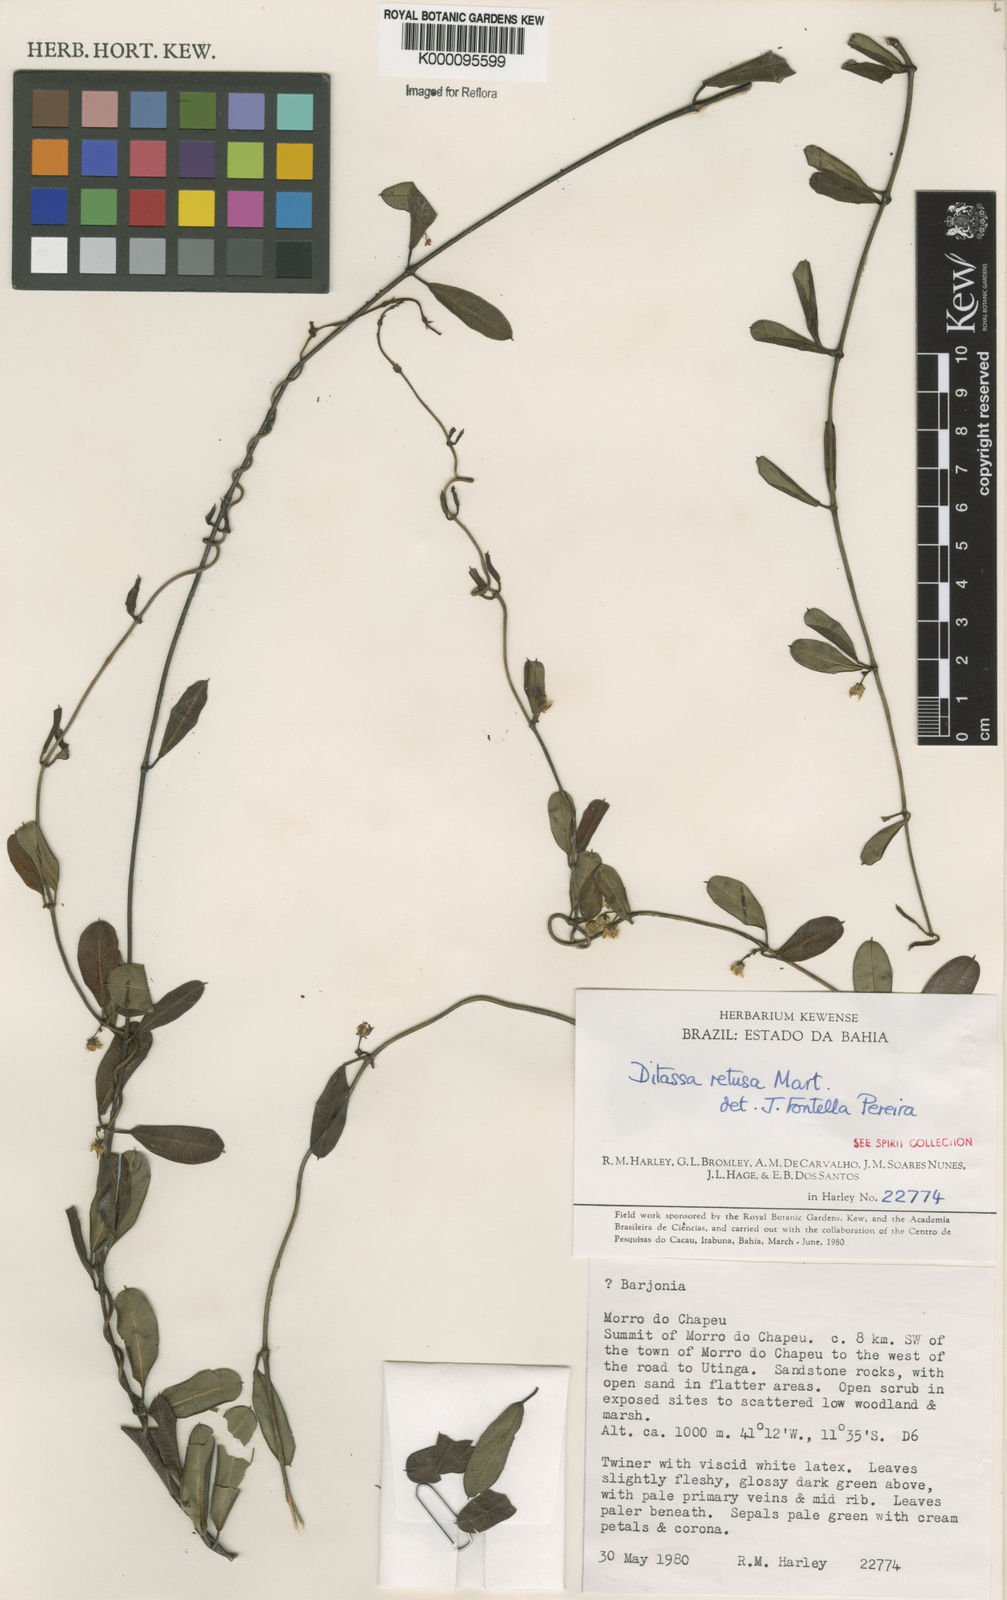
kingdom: Plantae
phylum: Tracheophyta
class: Magnoliopsida
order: Gentianales
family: Apocynaceae
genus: Ditassa
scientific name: Ditassa retusa
